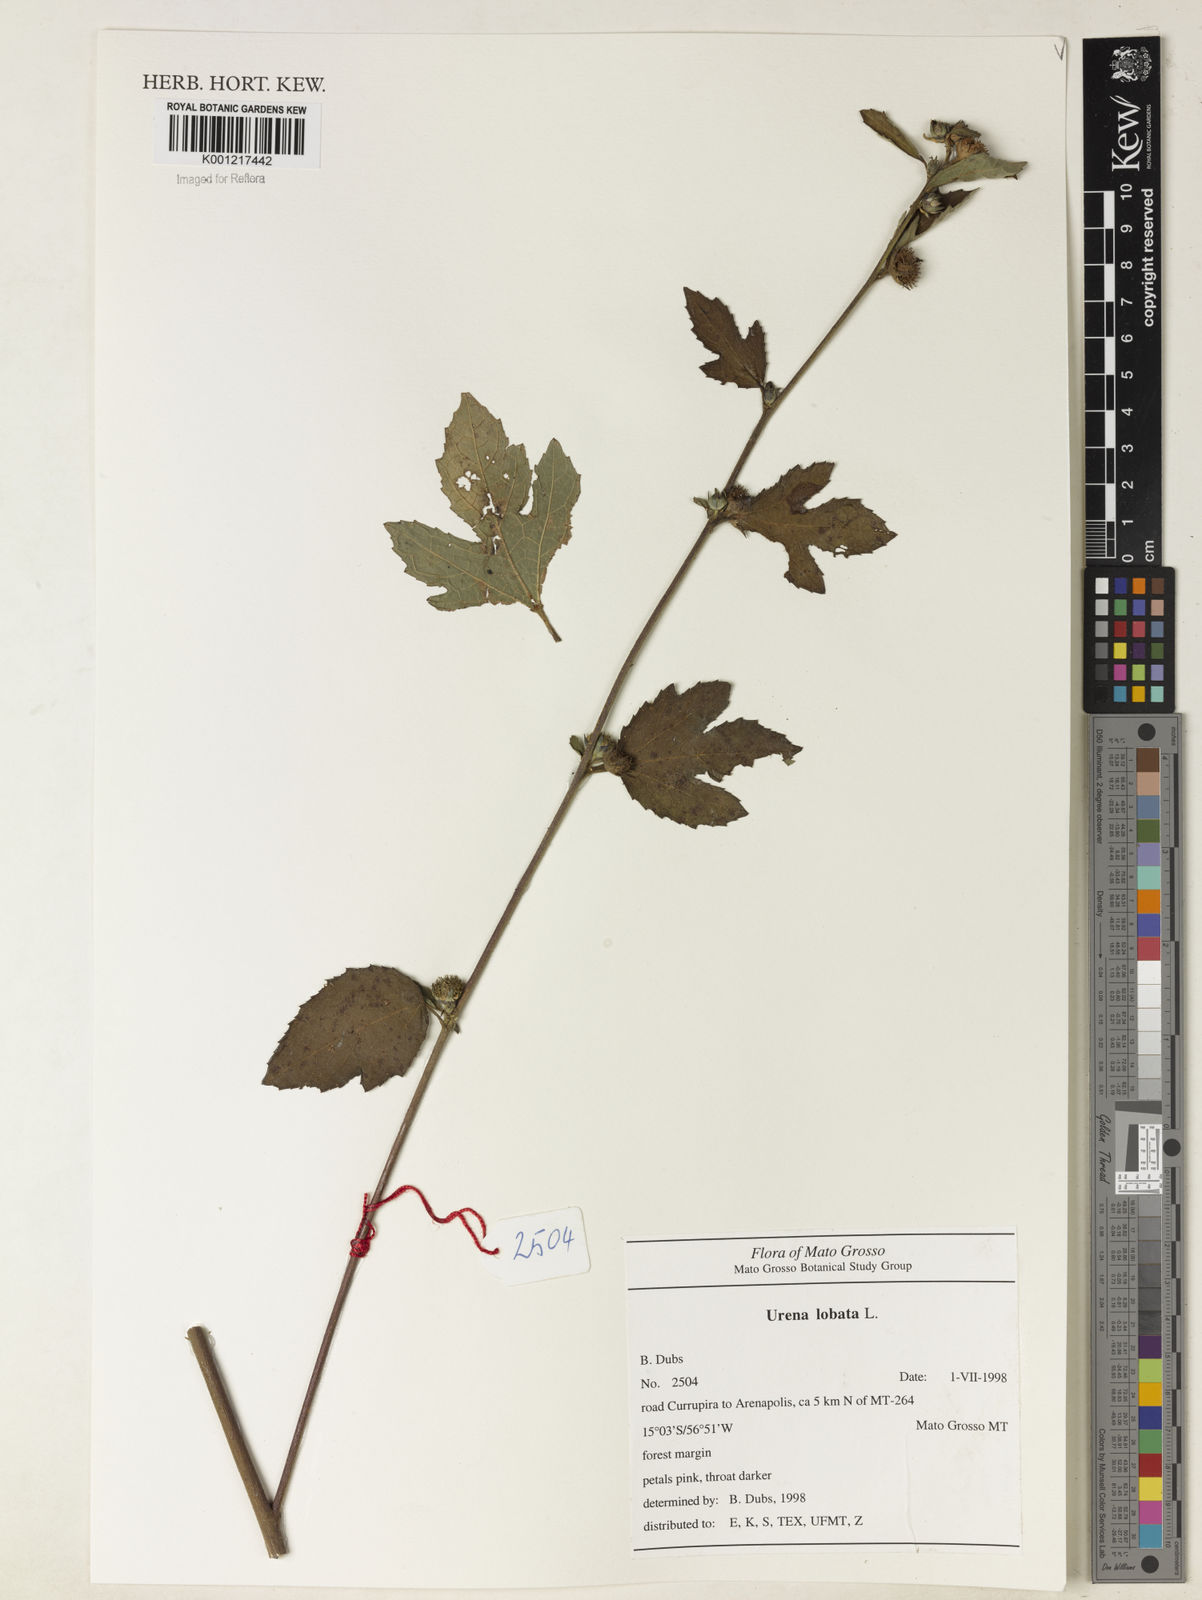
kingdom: Plantae
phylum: Tracheophyta
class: Magnoliopsida
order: Malvales
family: Malvaceae
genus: Urena
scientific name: Urena lobata
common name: Caesarweed
